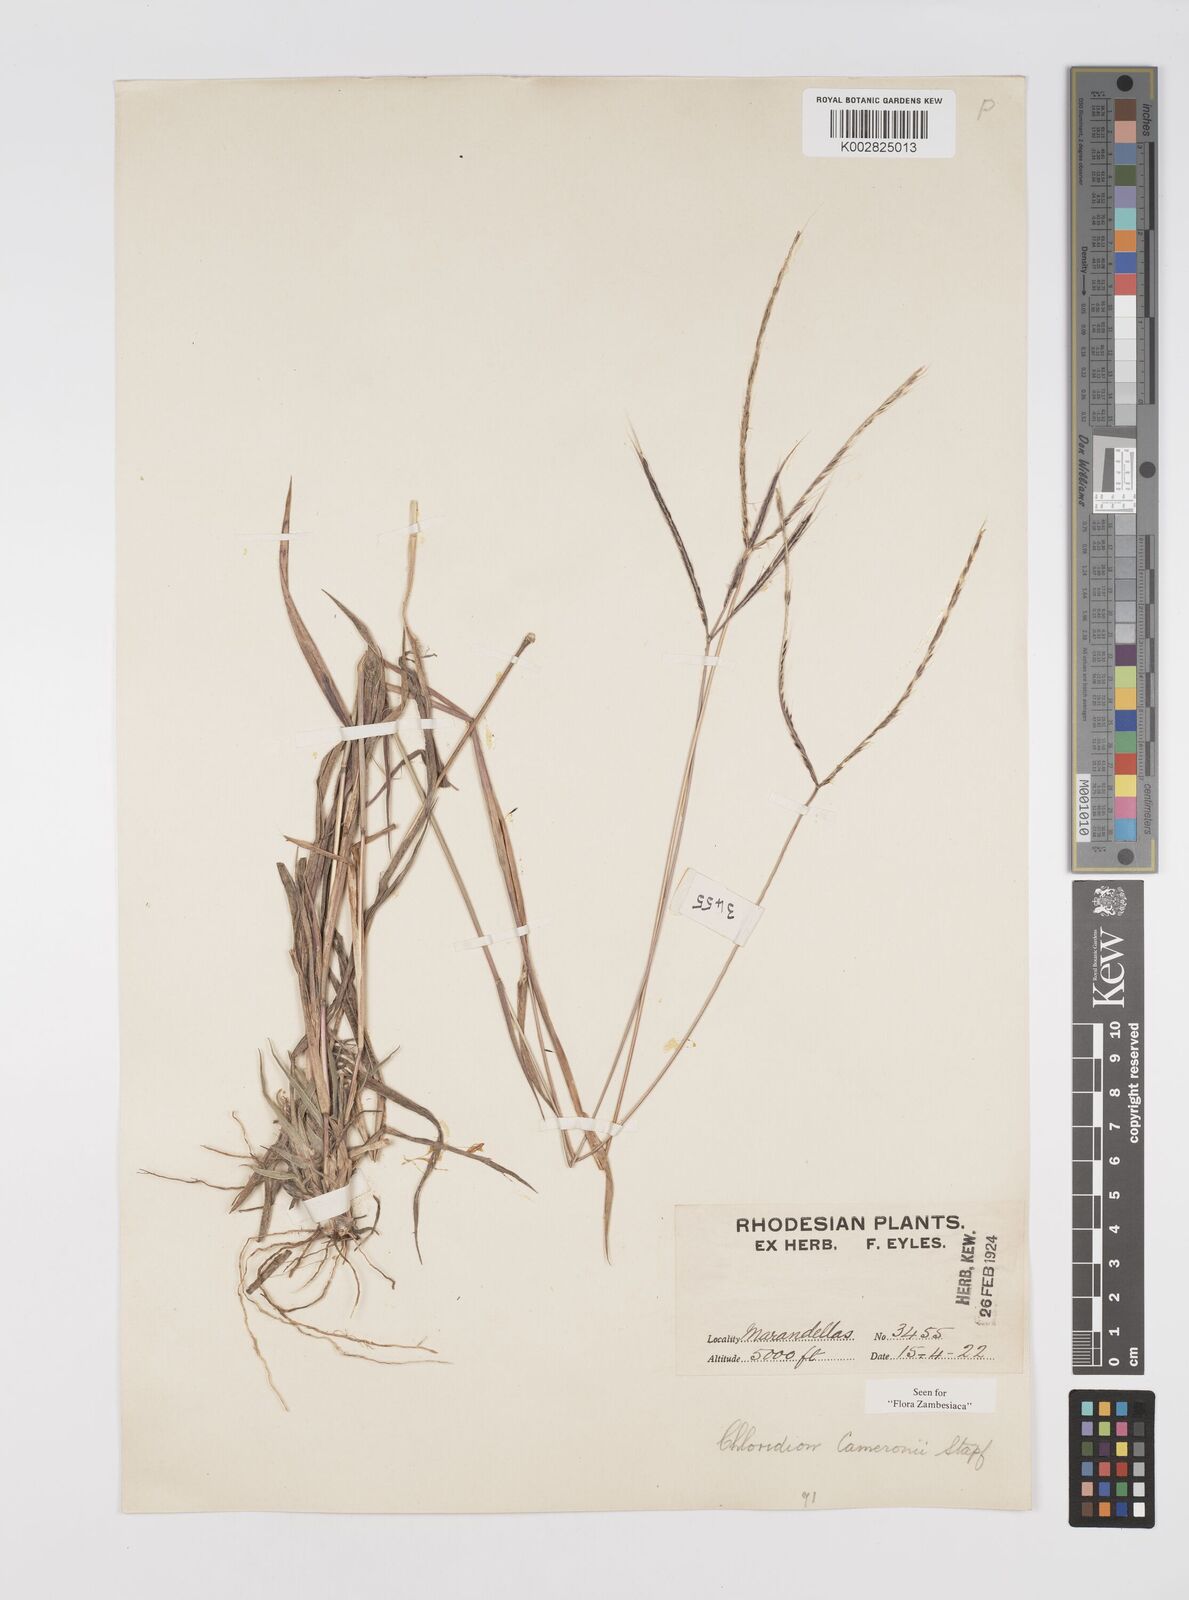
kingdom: Plantae
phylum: Tracheophyta
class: Liliopsida
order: Poales
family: Poaceae
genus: Stereochlaena
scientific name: Stereochlaena cameronii
